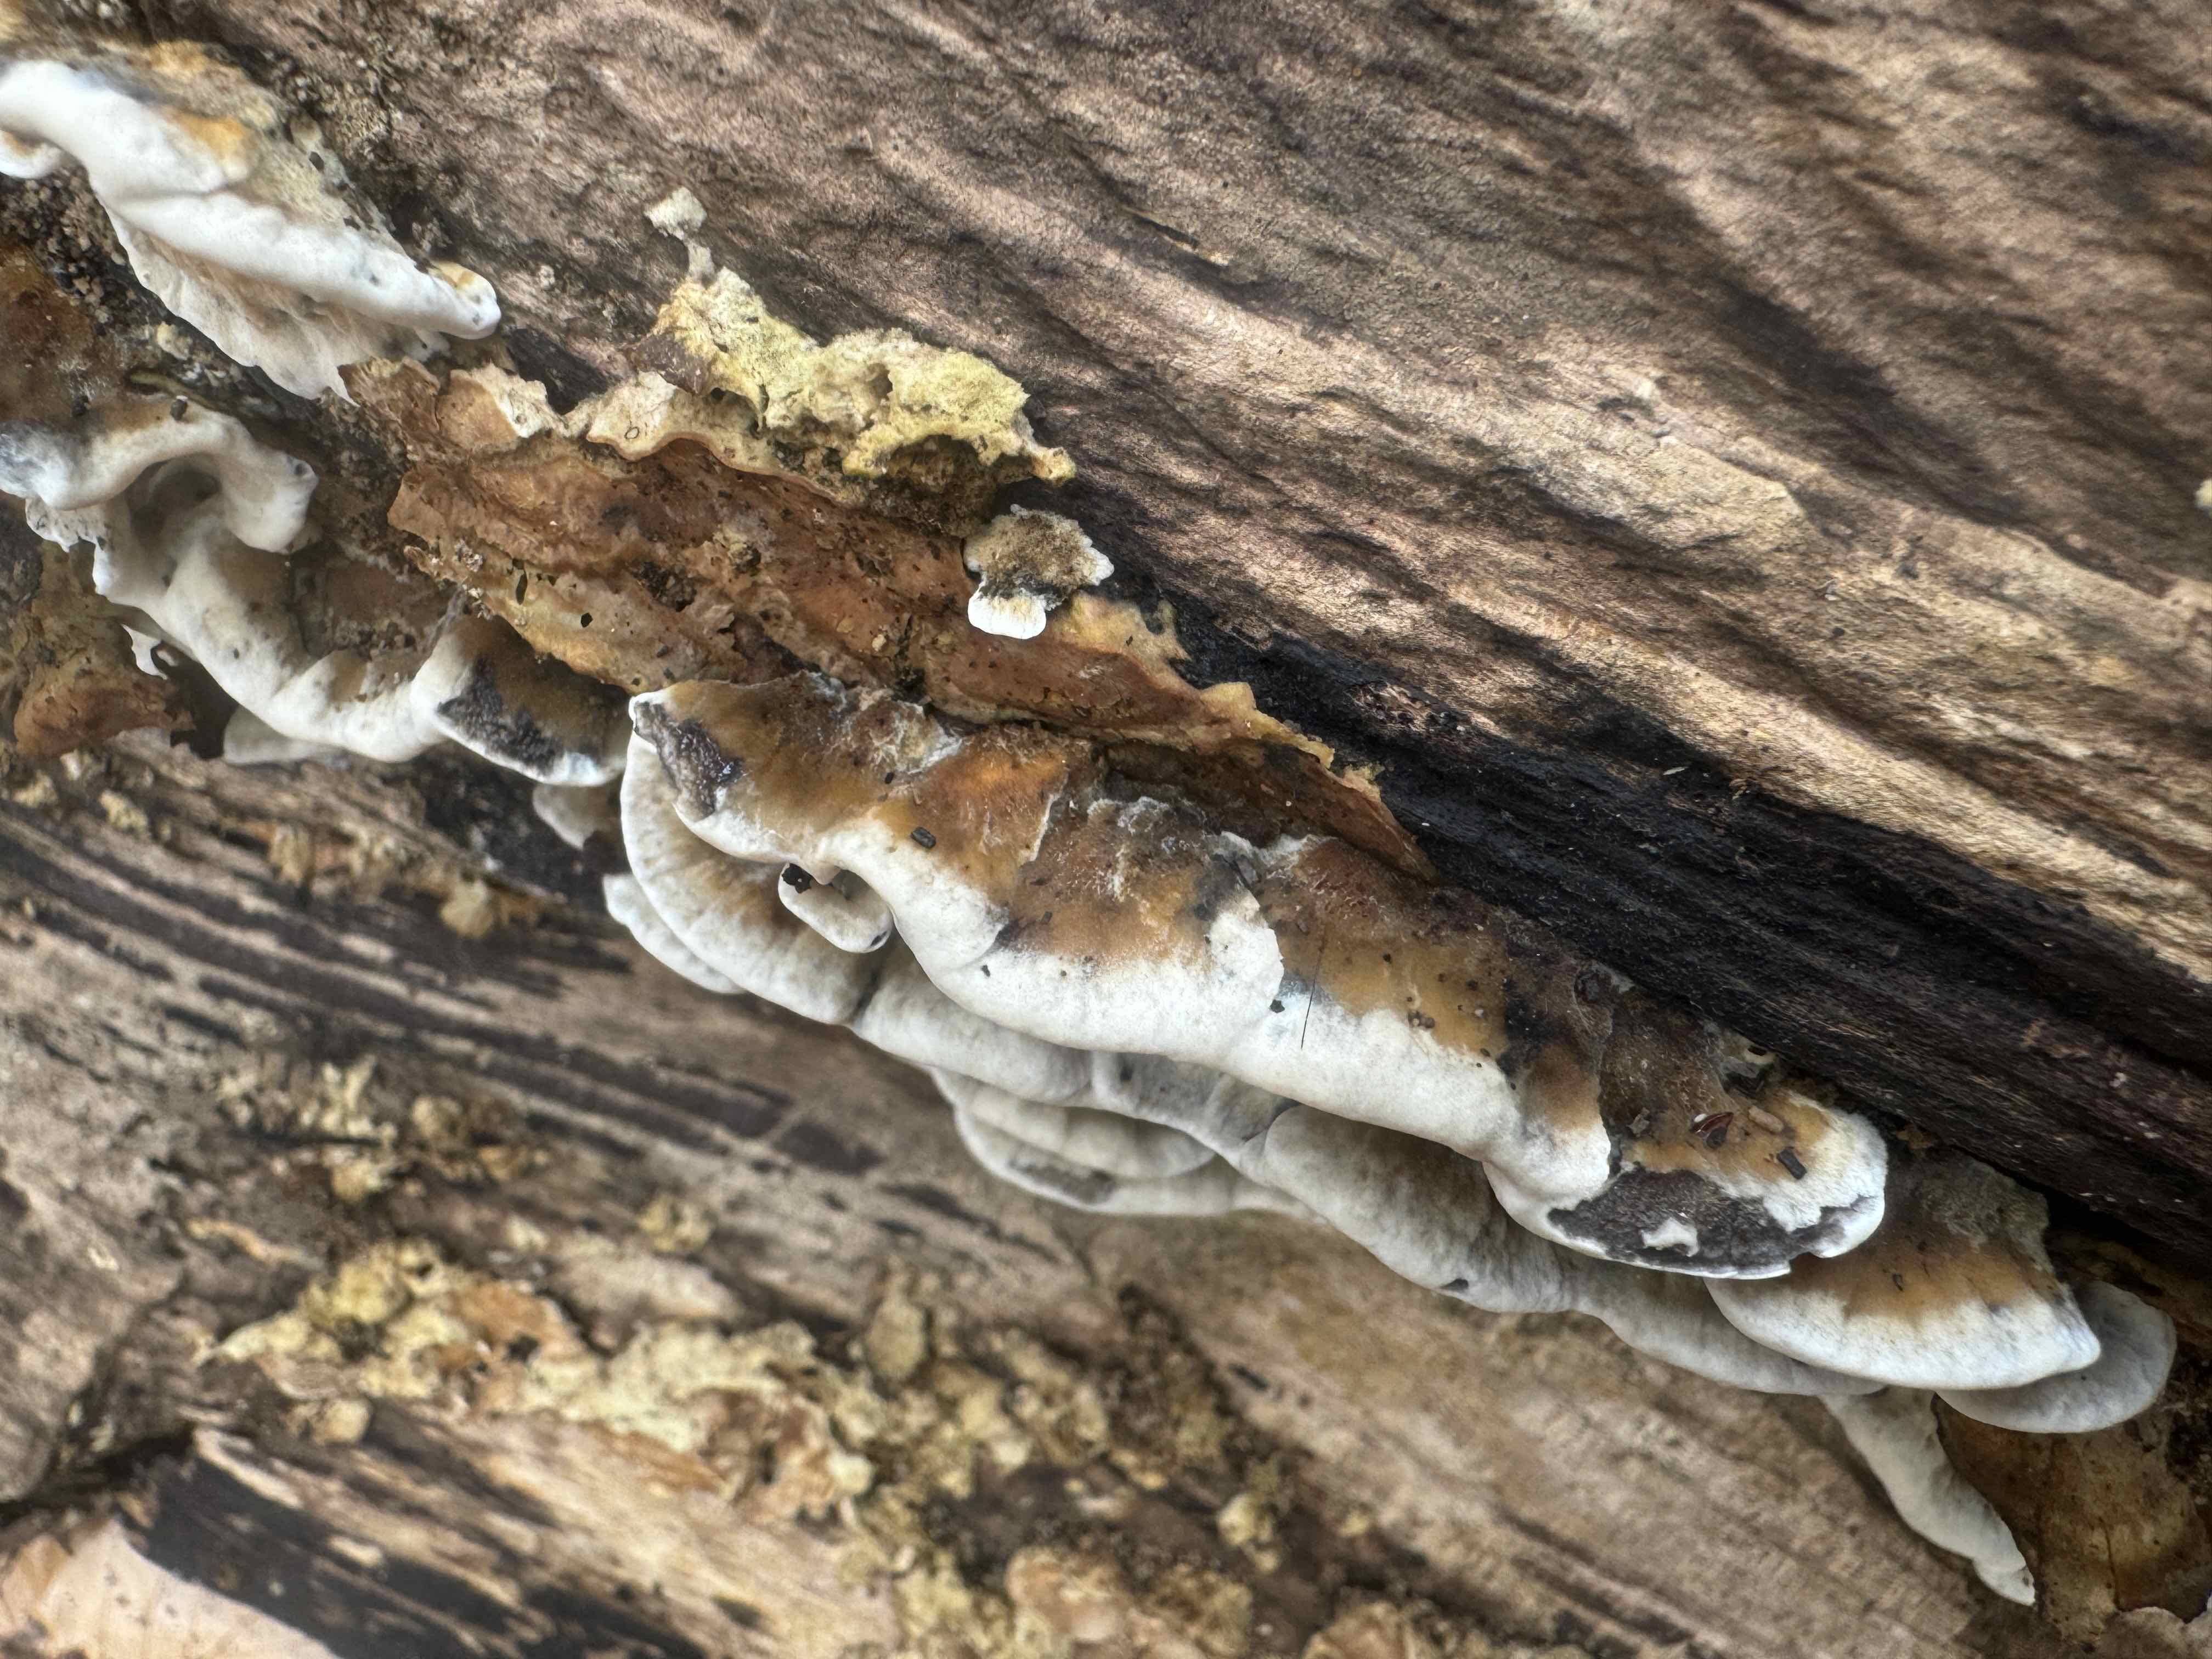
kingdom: Fungi
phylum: Basidiomycota
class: Agaricomycetes
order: Polyporales
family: Phanerochaetaceae
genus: Bjerkandera
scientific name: Bjerkandera adusta
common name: sveden sodporesvamp
